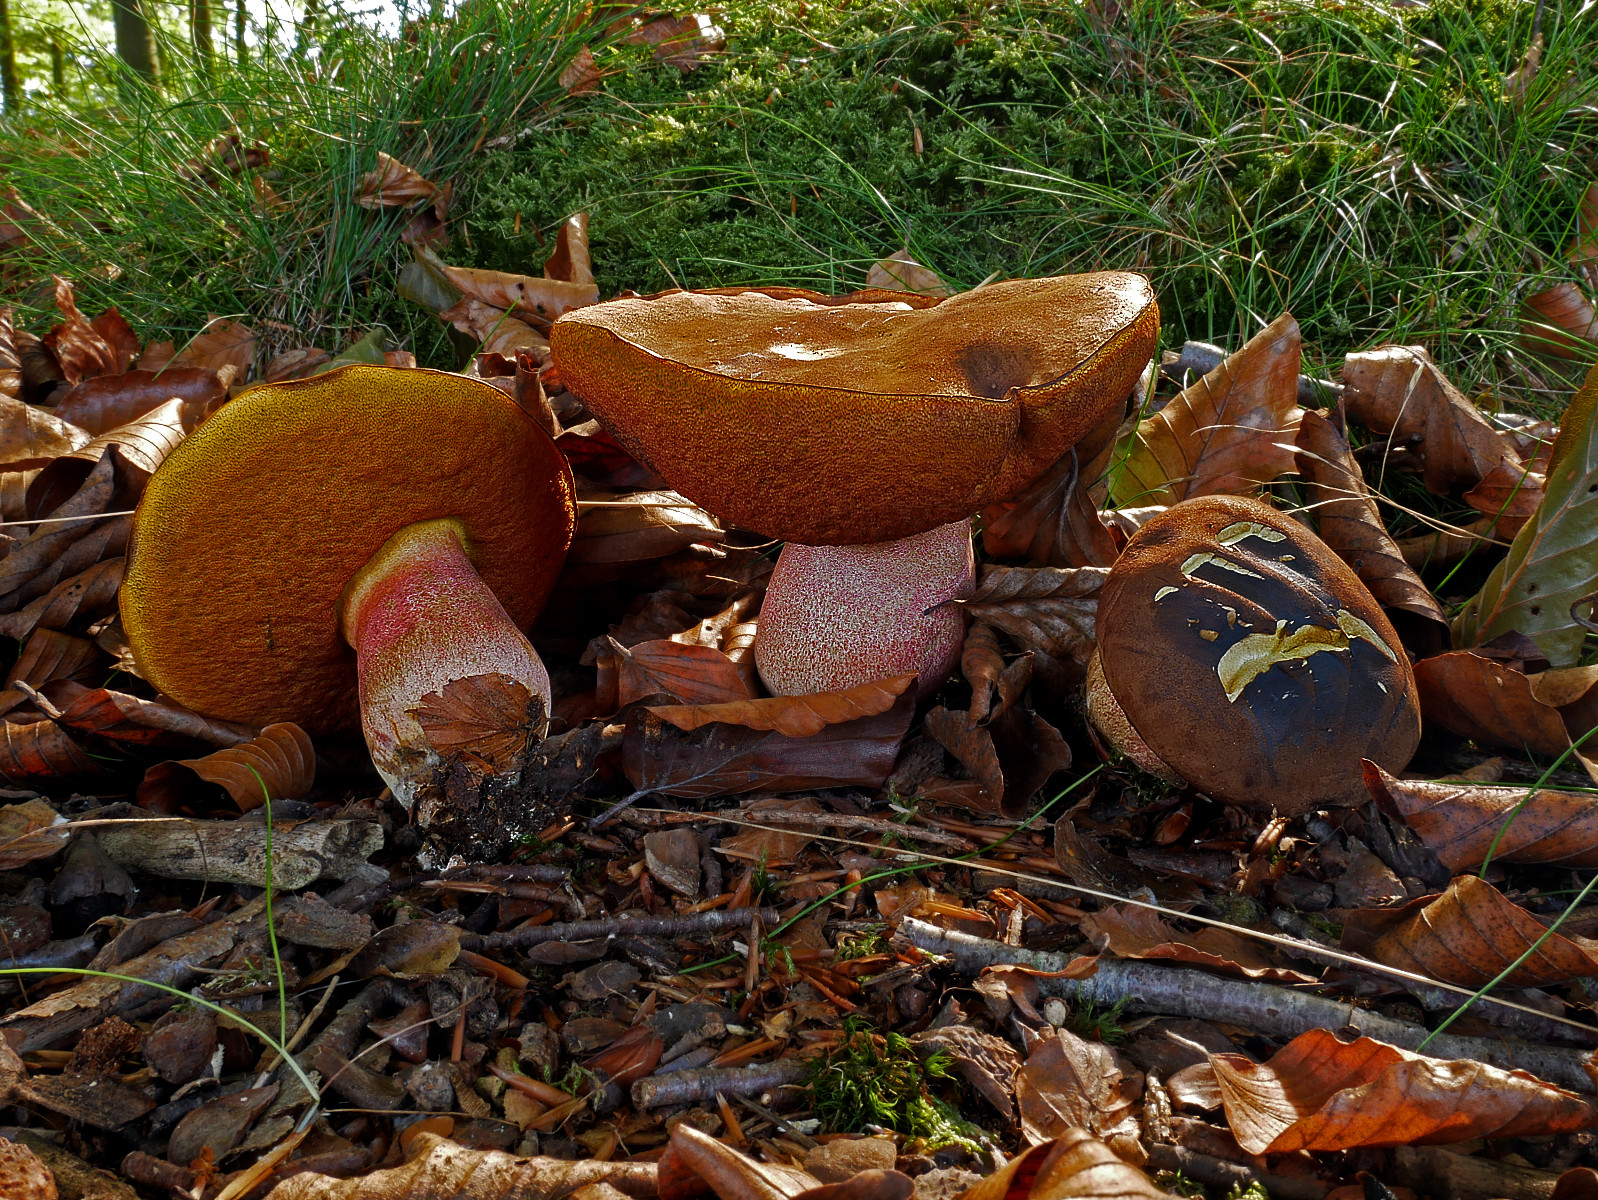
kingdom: Fungi
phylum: Basidiomycota
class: Agaricomycetes
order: Boletales
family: Boletaceae
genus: Neoboletus
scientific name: Neoboletus erythropus
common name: punktstokket indigorørhat
